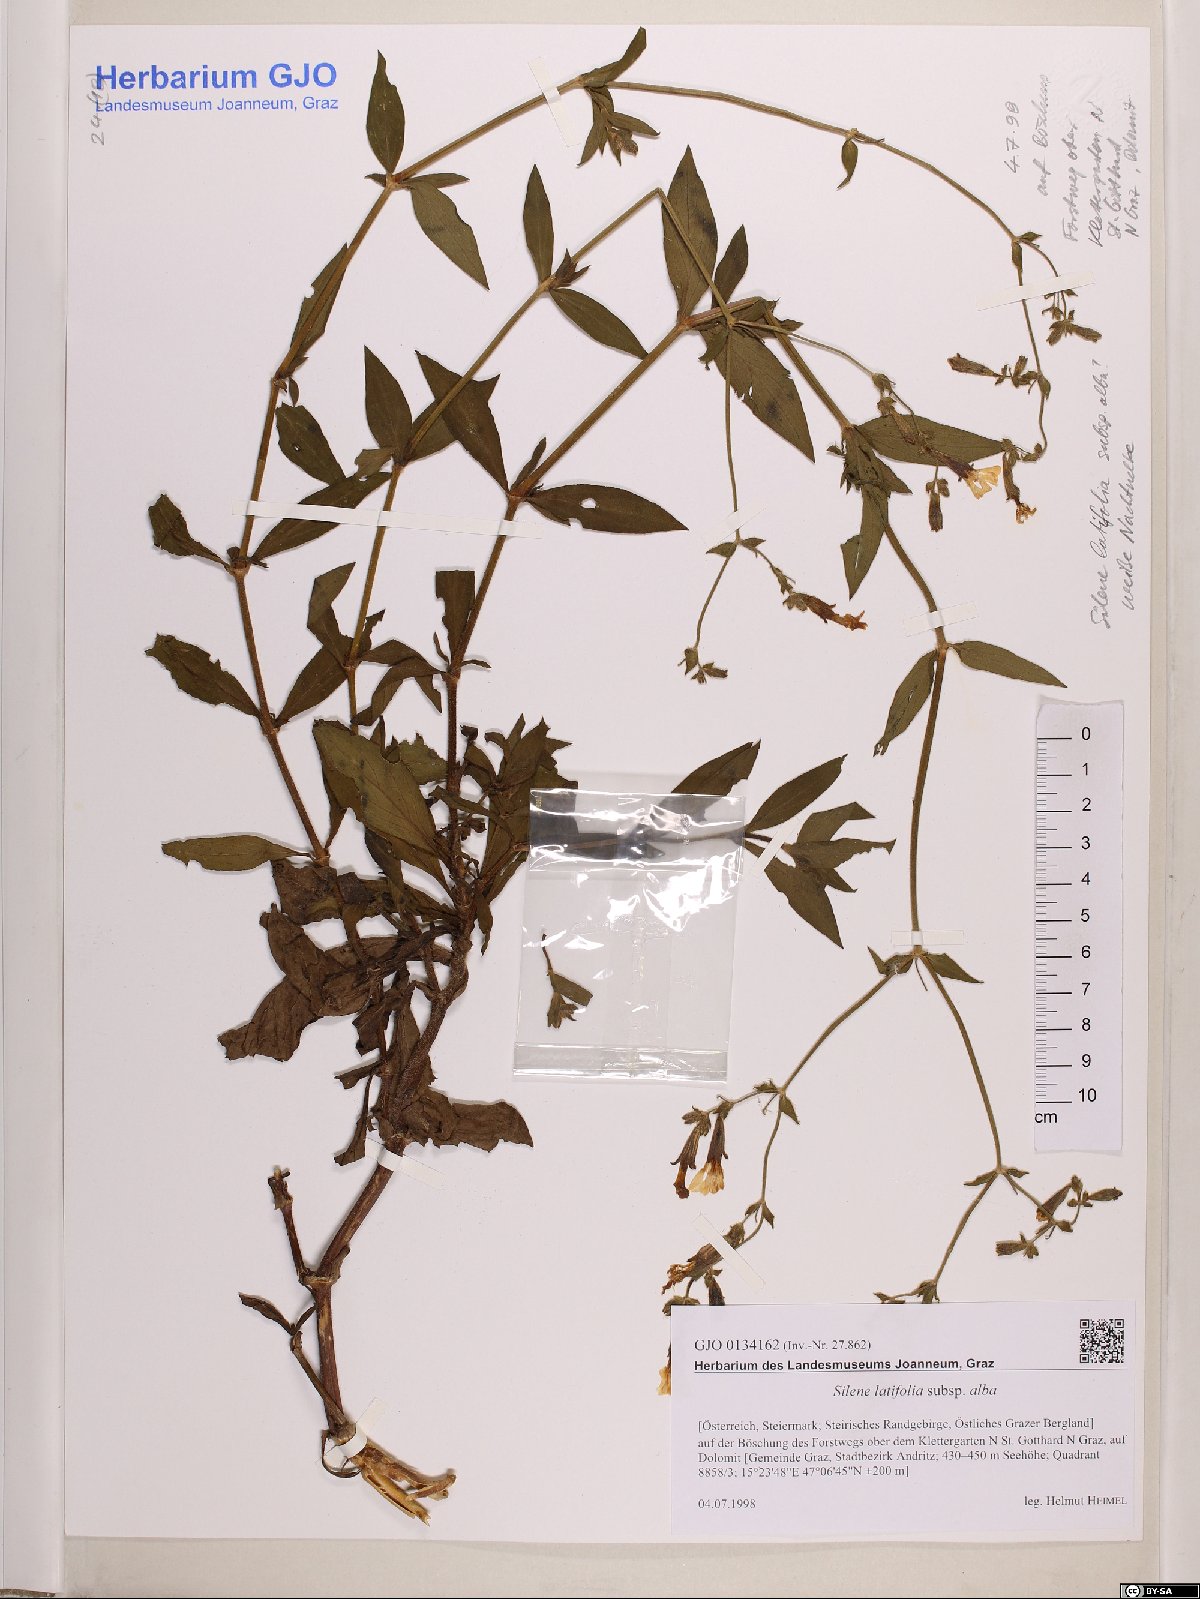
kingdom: Plantae
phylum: Tracheophyta
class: Magnoliopsida
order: Caryophyllales
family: Caryophyllaceae
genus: Silene
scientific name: Silene latifolia
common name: White campion
